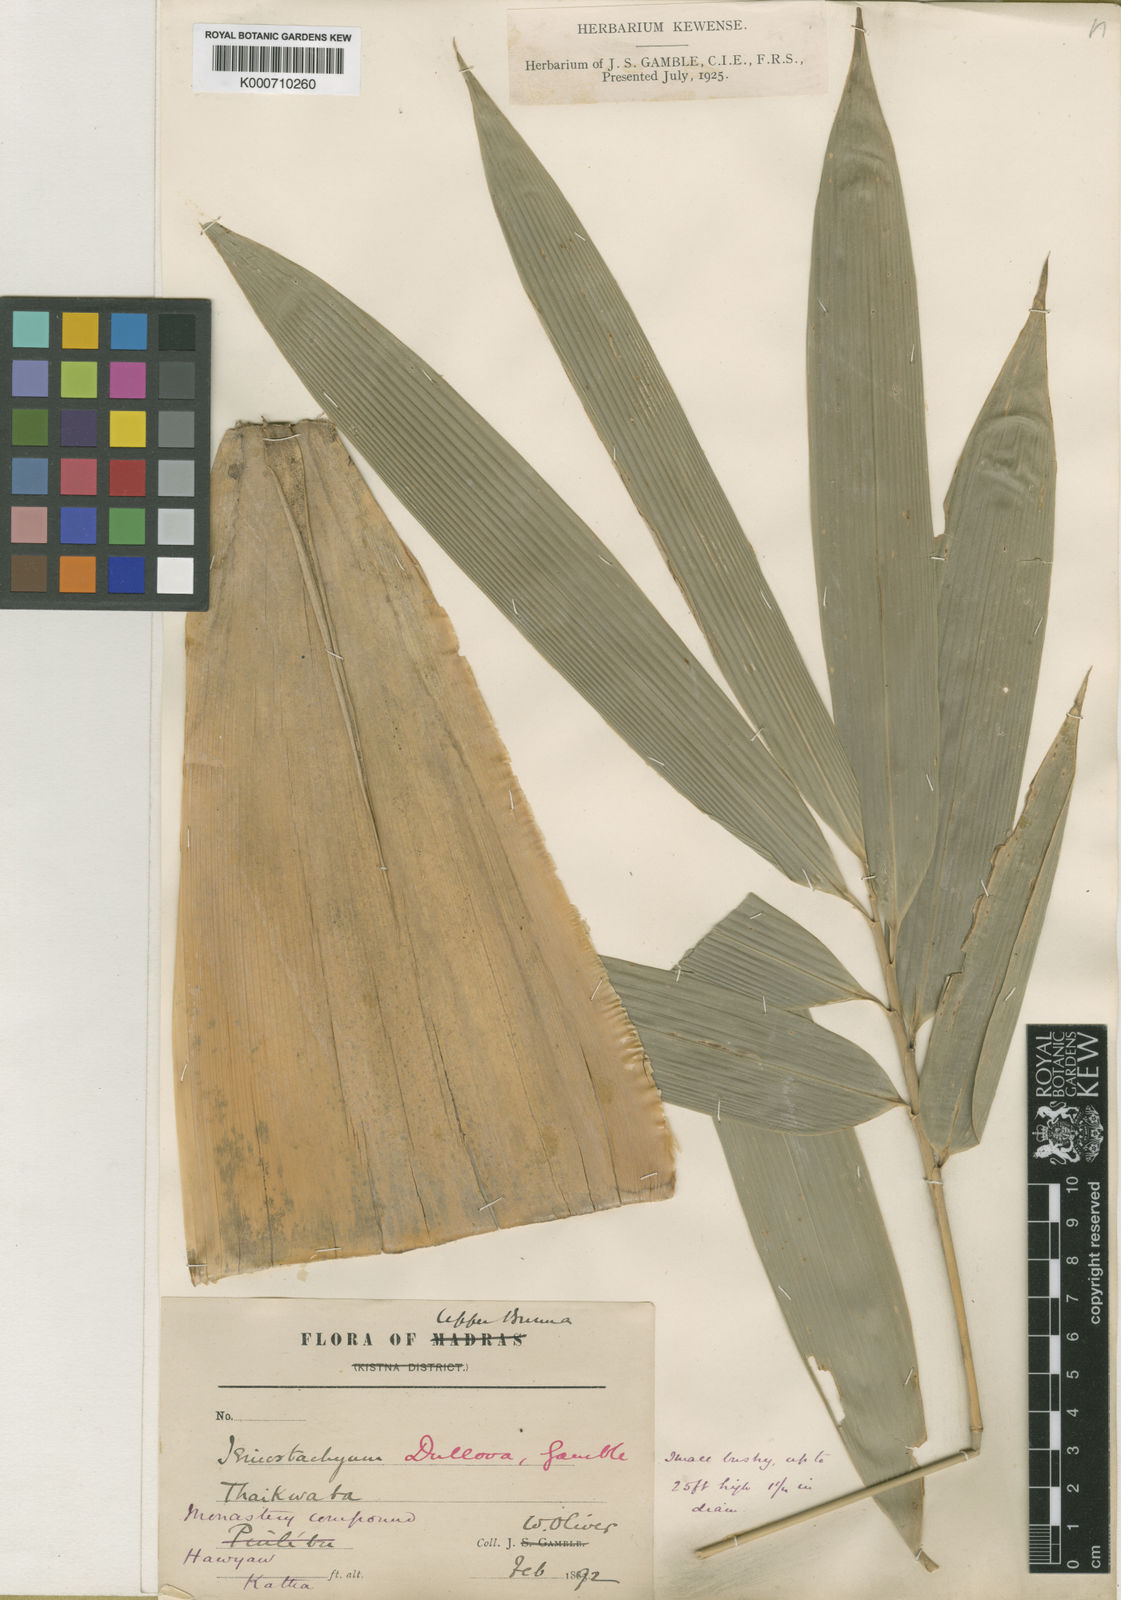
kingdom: Plantae
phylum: Tracheophyta
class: Liliopsida
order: Poales
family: Poaceae
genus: Schizostachyum
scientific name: Schizostachyum dullooa
